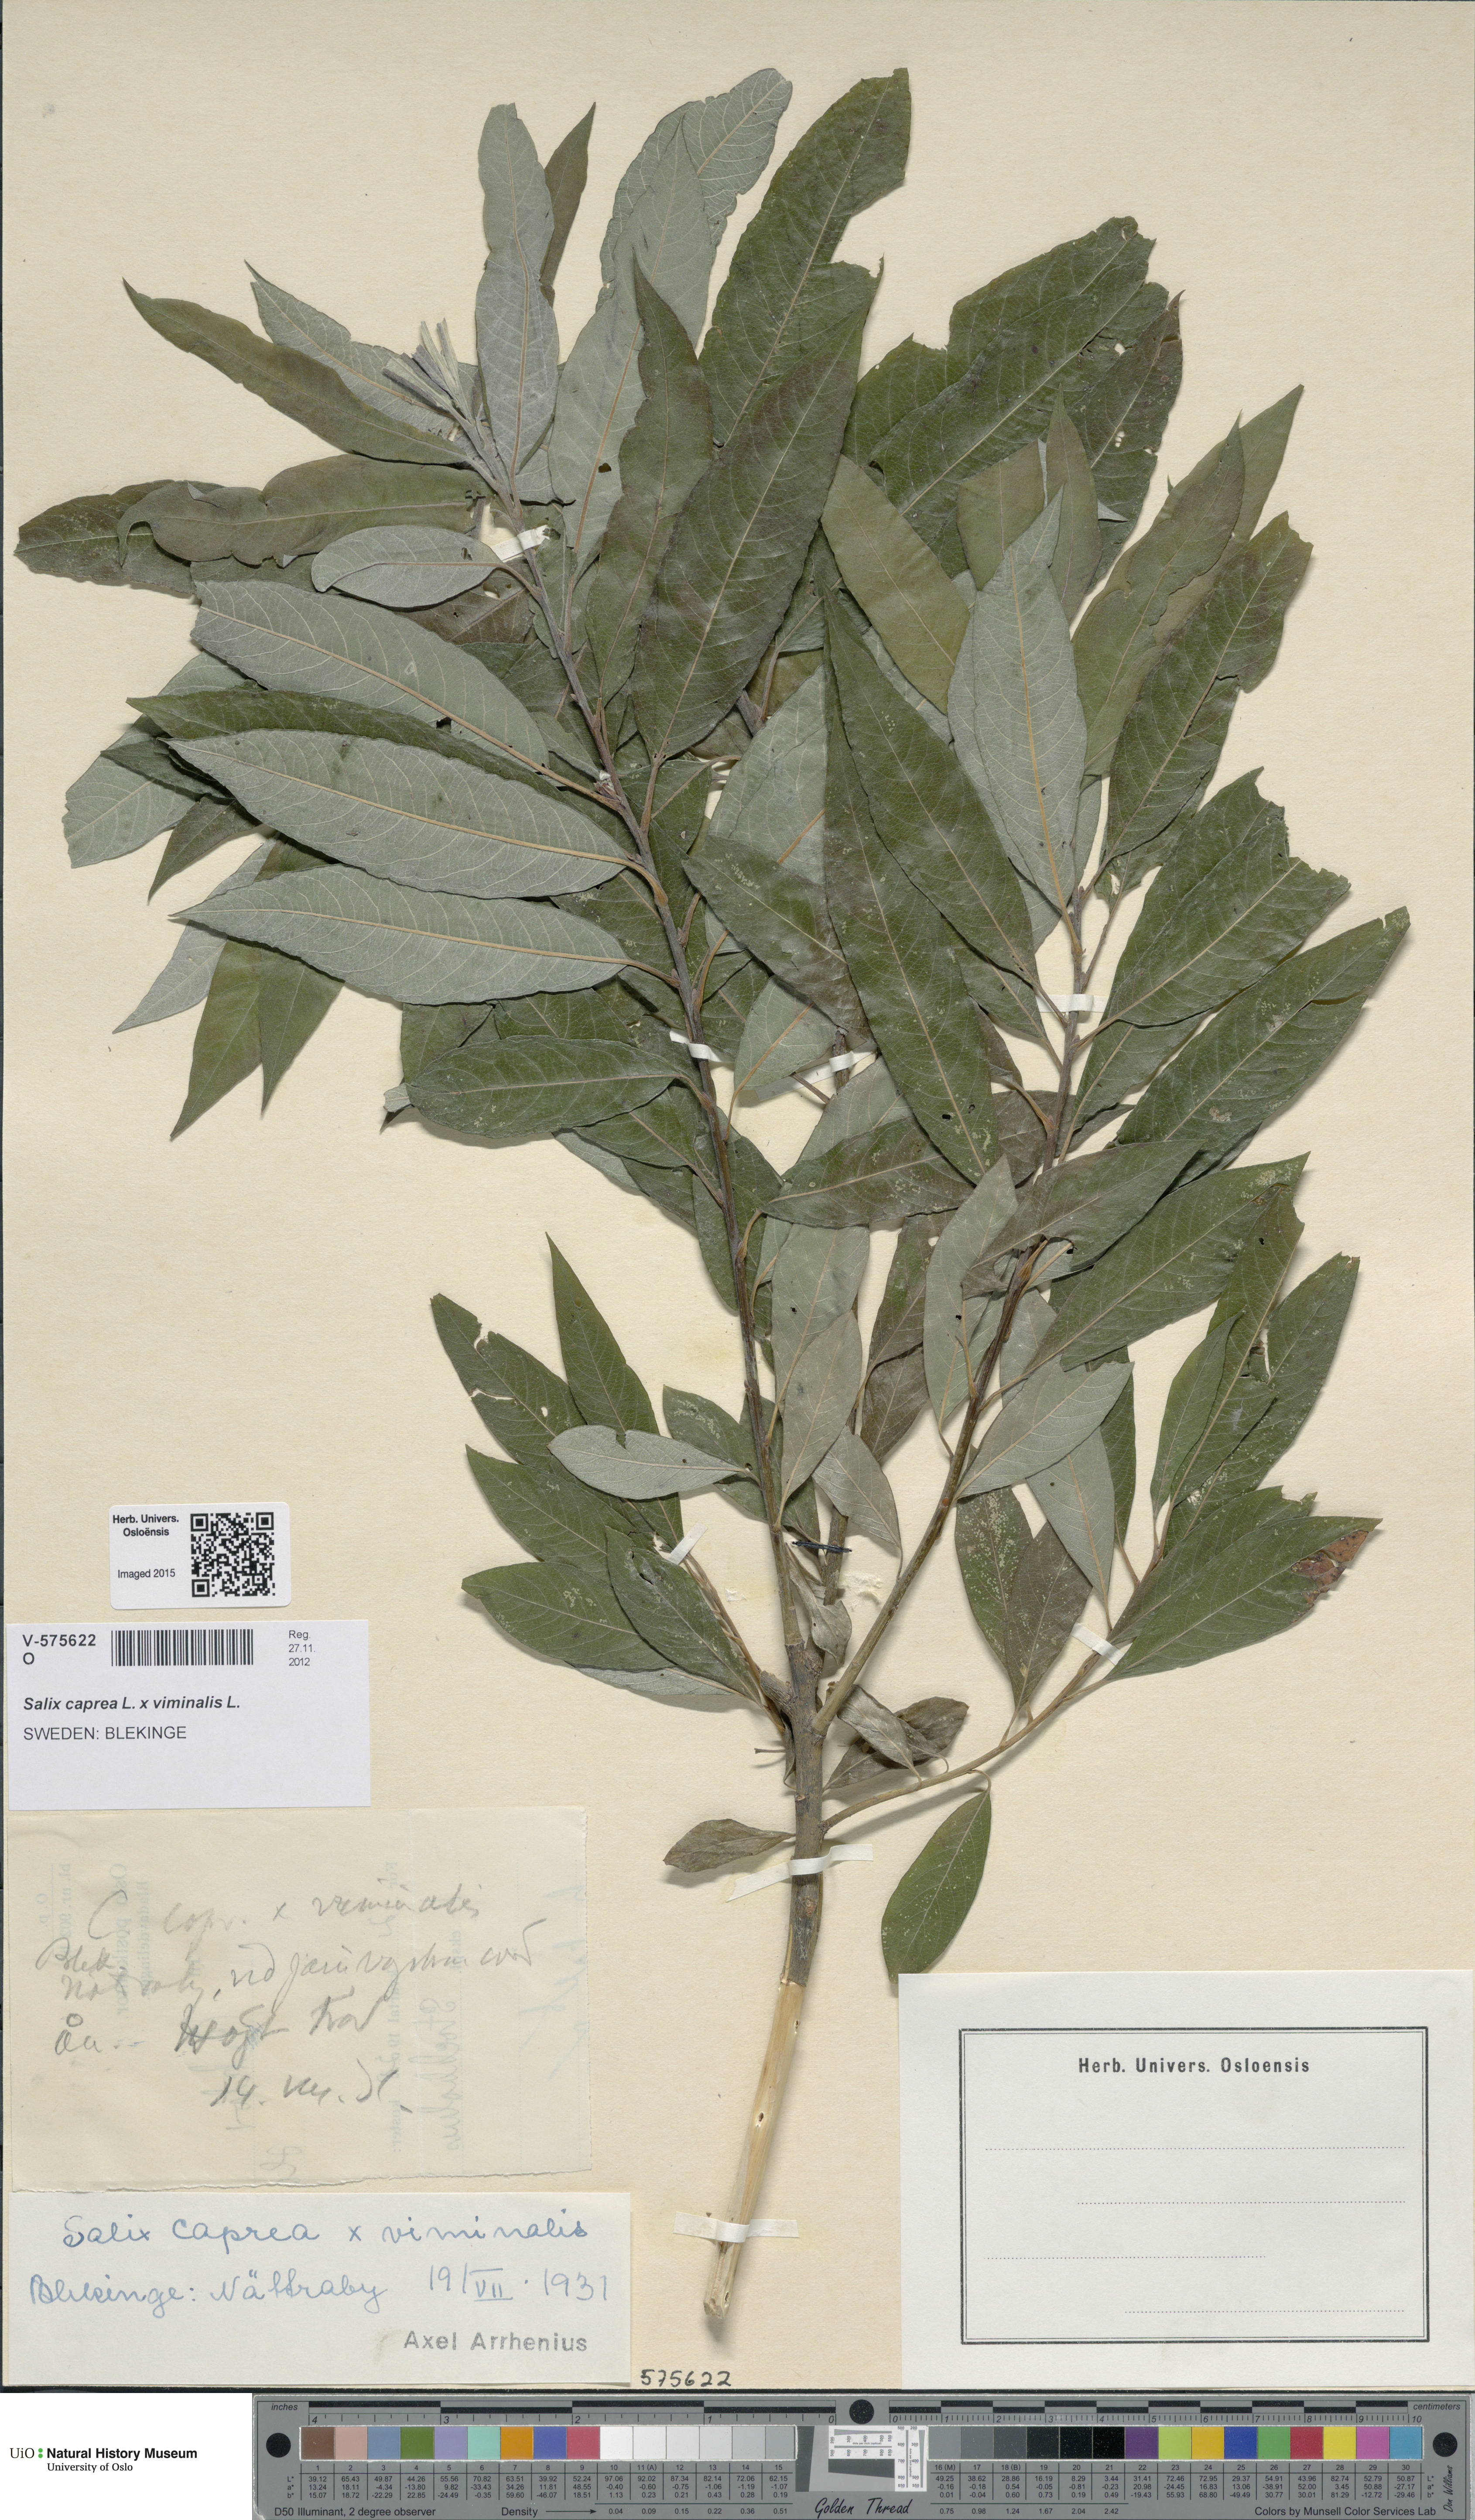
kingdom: Plantae
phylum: Tracheophyta
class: Magnoliopsida
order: Malpighiales
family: Salicaceae
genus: Salix
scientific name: Salix
